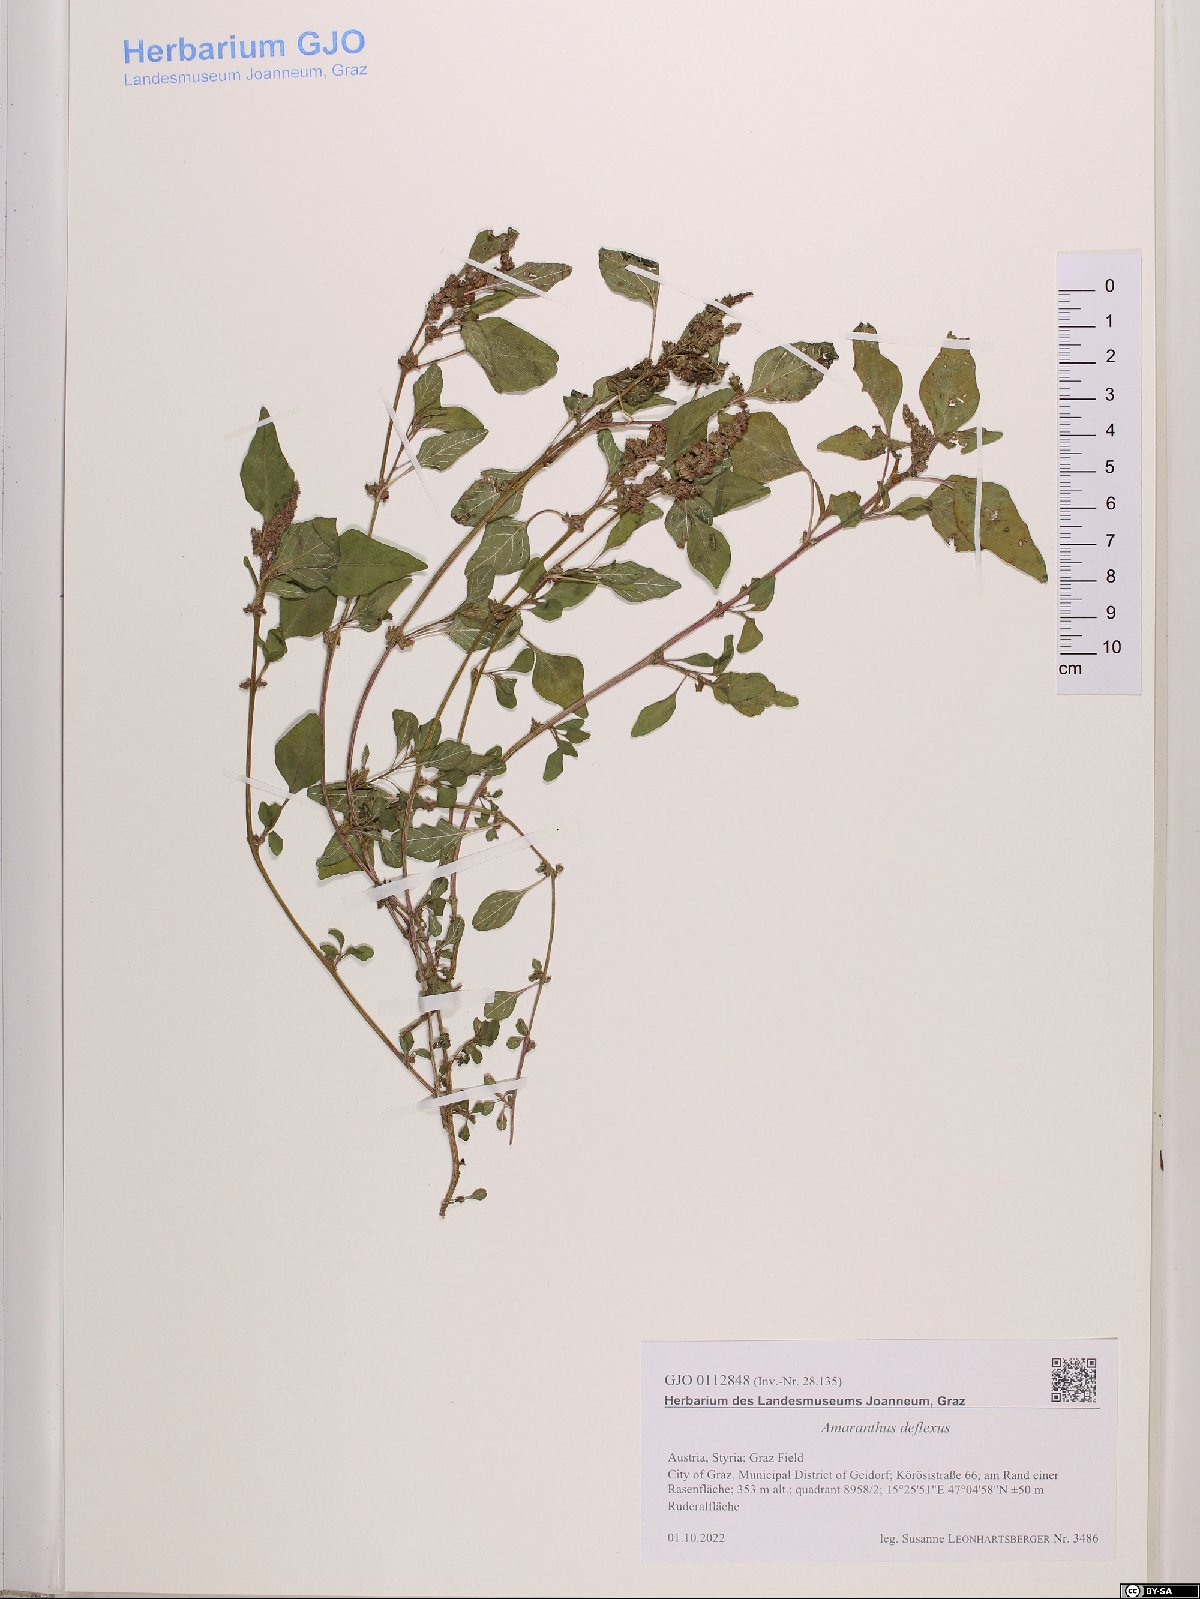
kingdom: Plantae
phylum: Tracheophyta
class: Magnoliopsida
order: Caryophyllales
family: Amaranthaceae
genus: Amaranthus
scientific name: Amaranthus deflexus
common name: Perennial pigweed
